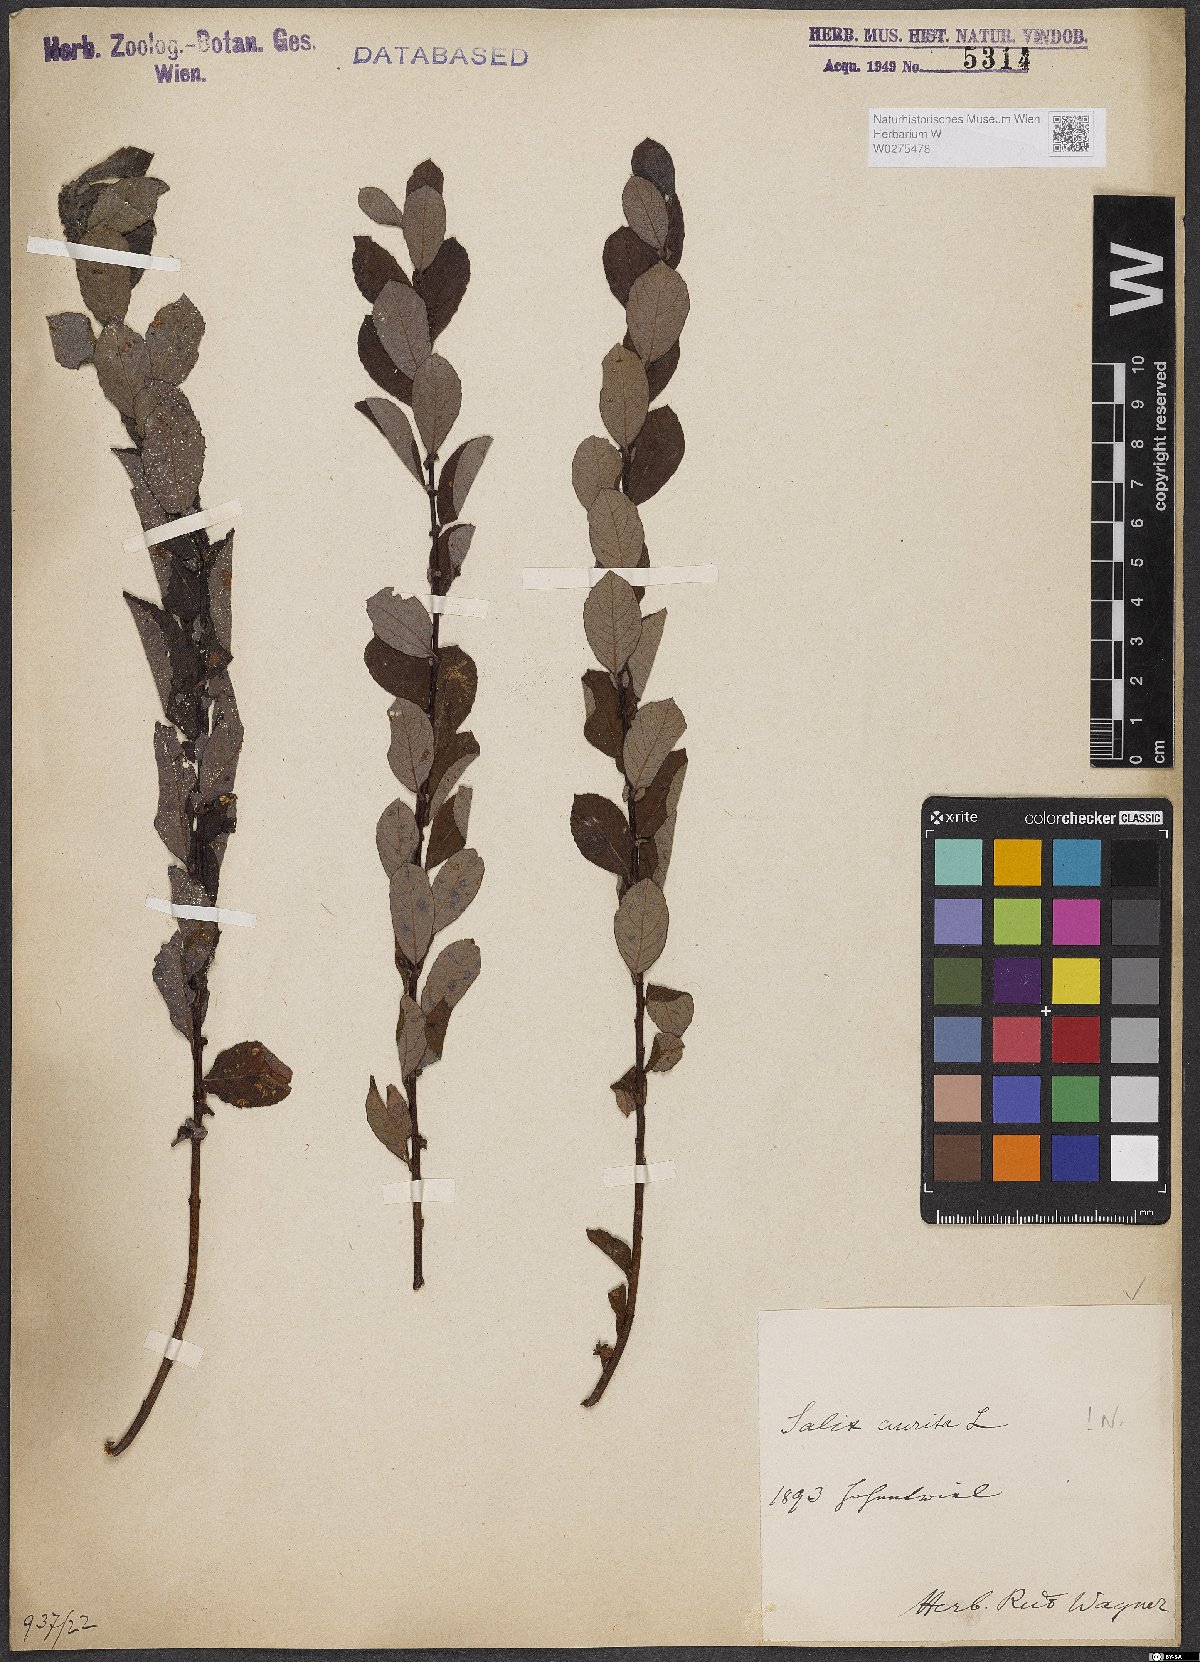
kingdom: Plantae
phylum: Tracheophyta
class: Magnoliopsida
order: Malpighiales
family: Salicaceae
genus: Salix
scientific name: Salix aurita
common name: Eared willow
